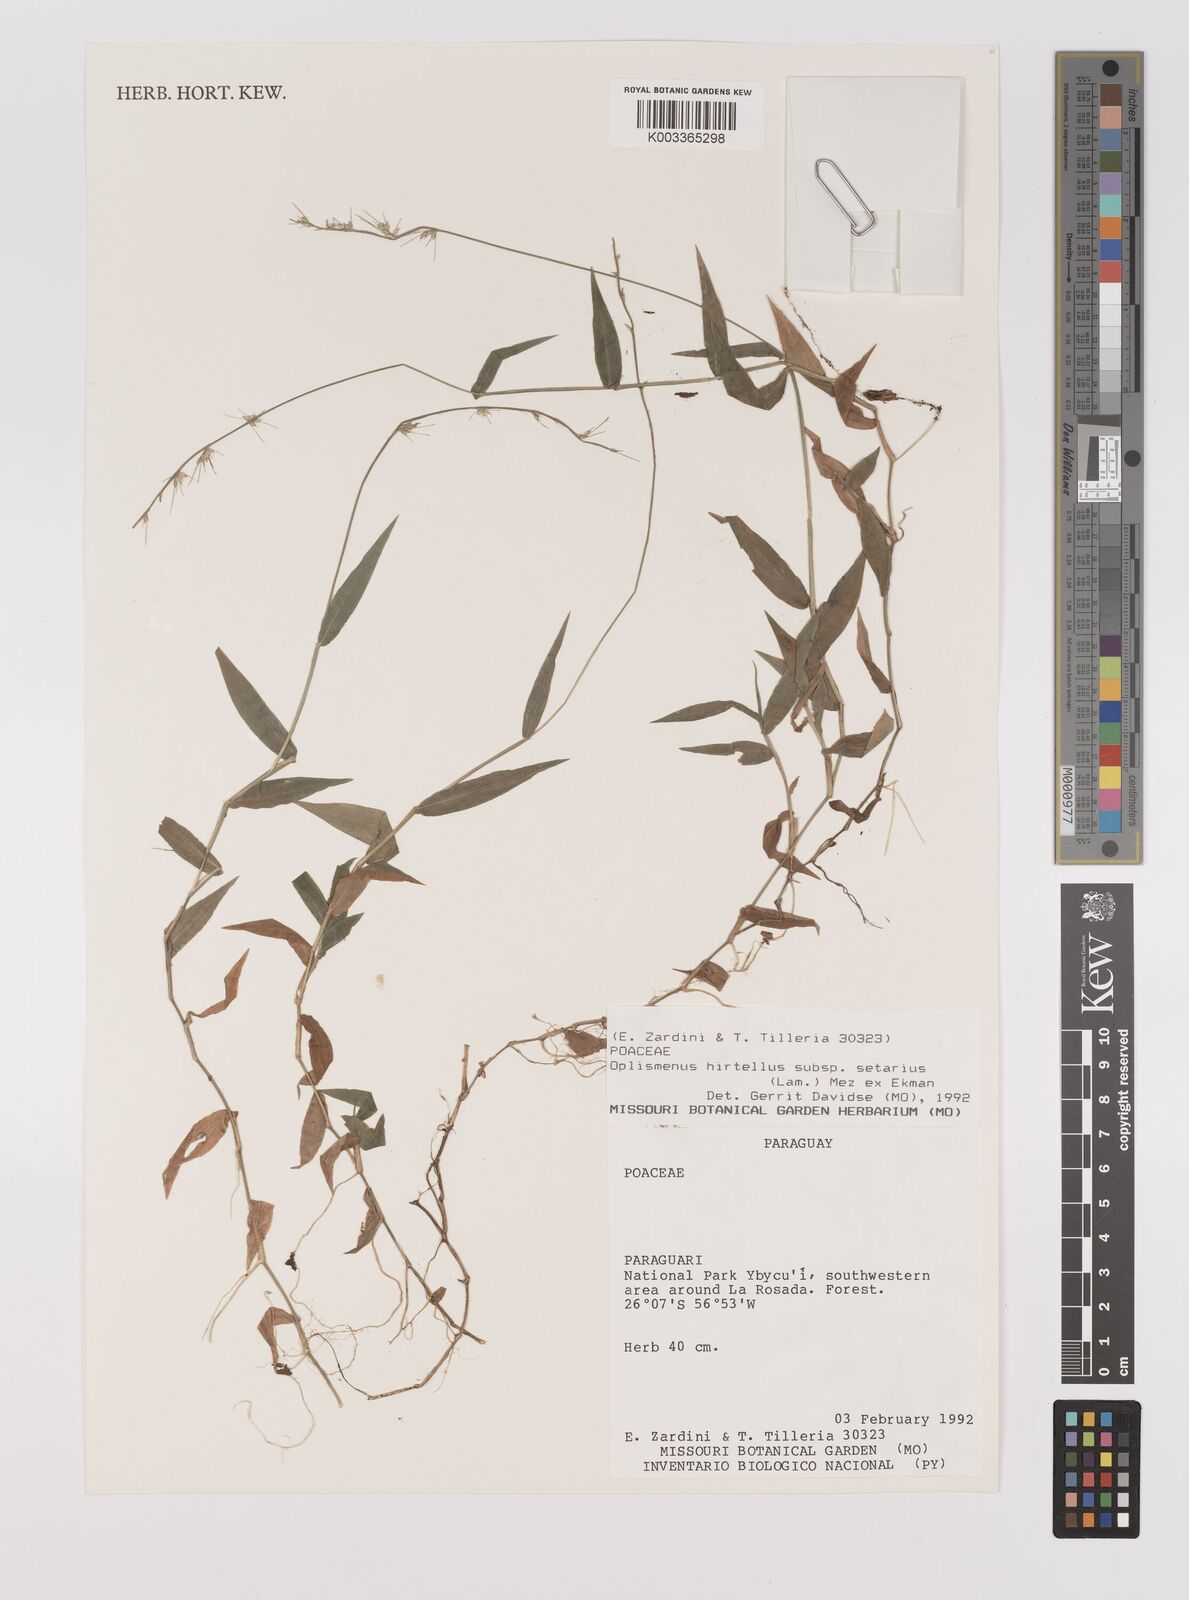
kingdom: Plantae
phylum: Tracheophyta
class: Liliopsida
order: Poales
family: Poaceae
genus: Oplismenus
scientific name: Oplismenus hirtellus
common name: Basketgrass
